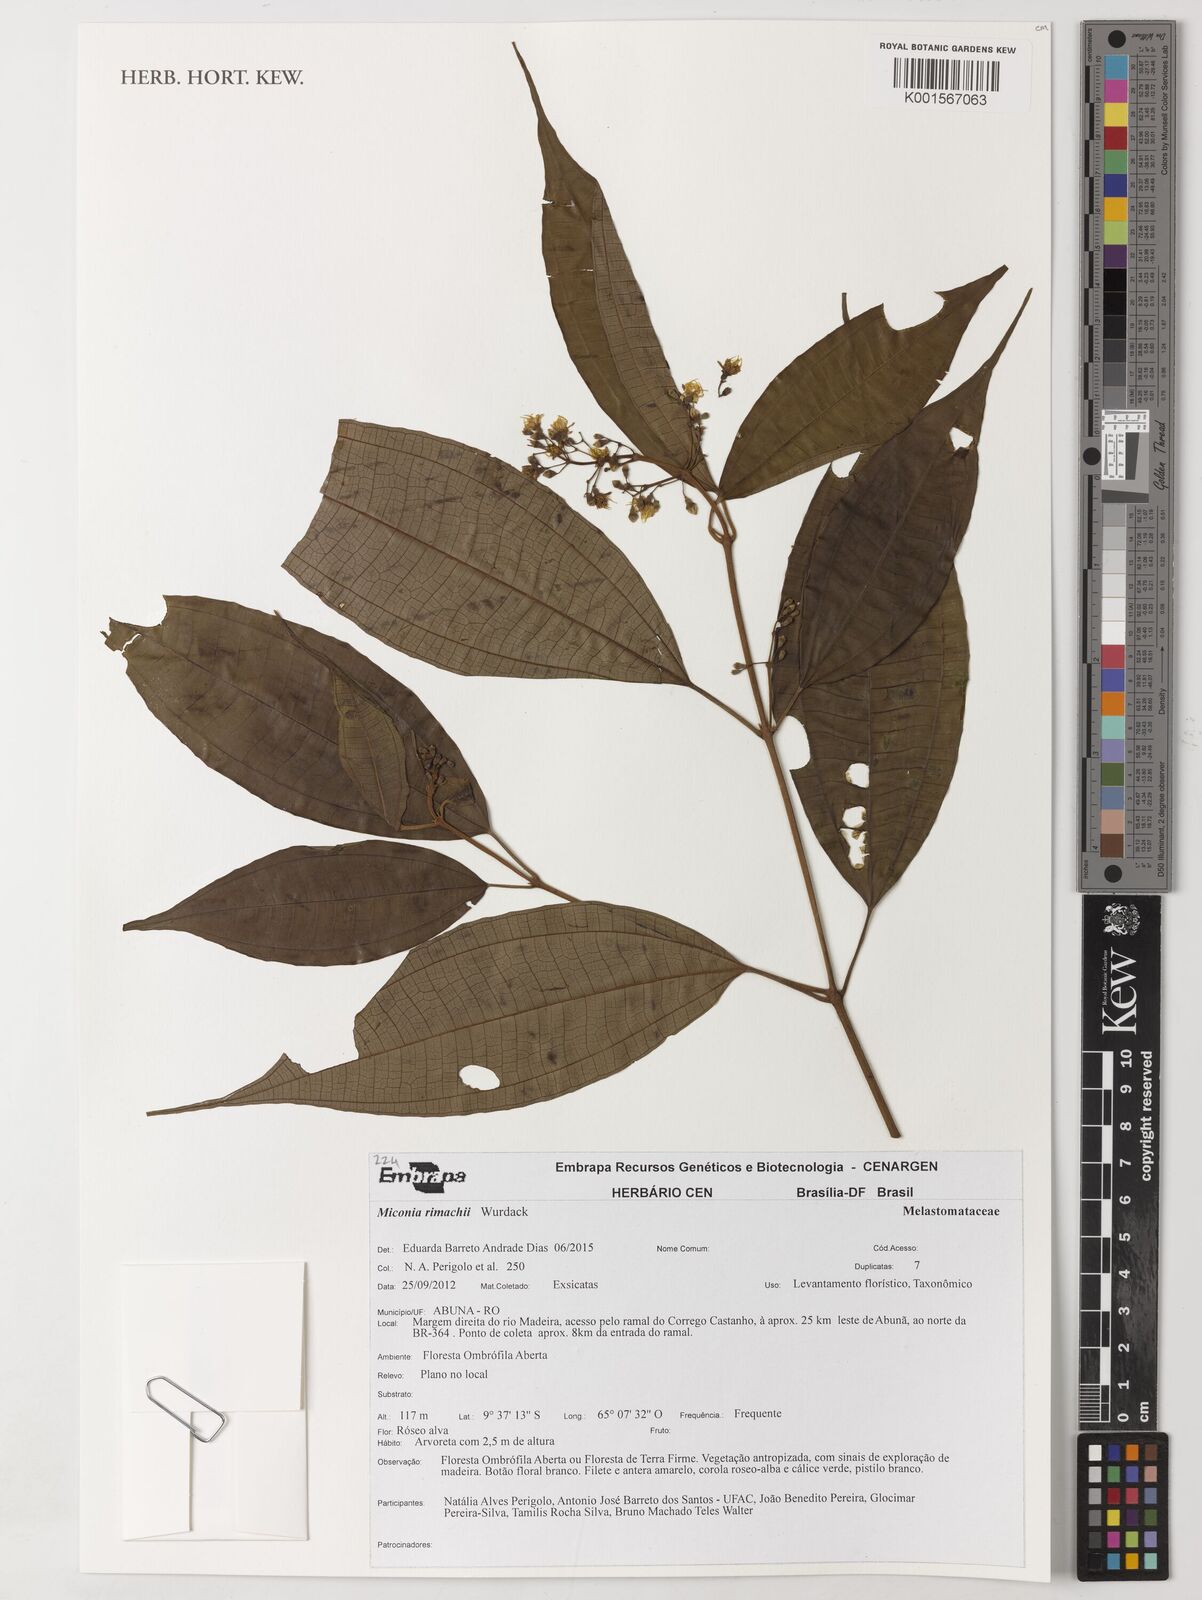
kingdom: Plantae
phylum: Tracheophyta
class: Magnoliopsida
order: Myrtales
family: Melastomataceae
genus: Miconia
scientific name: Miconia rimachii
